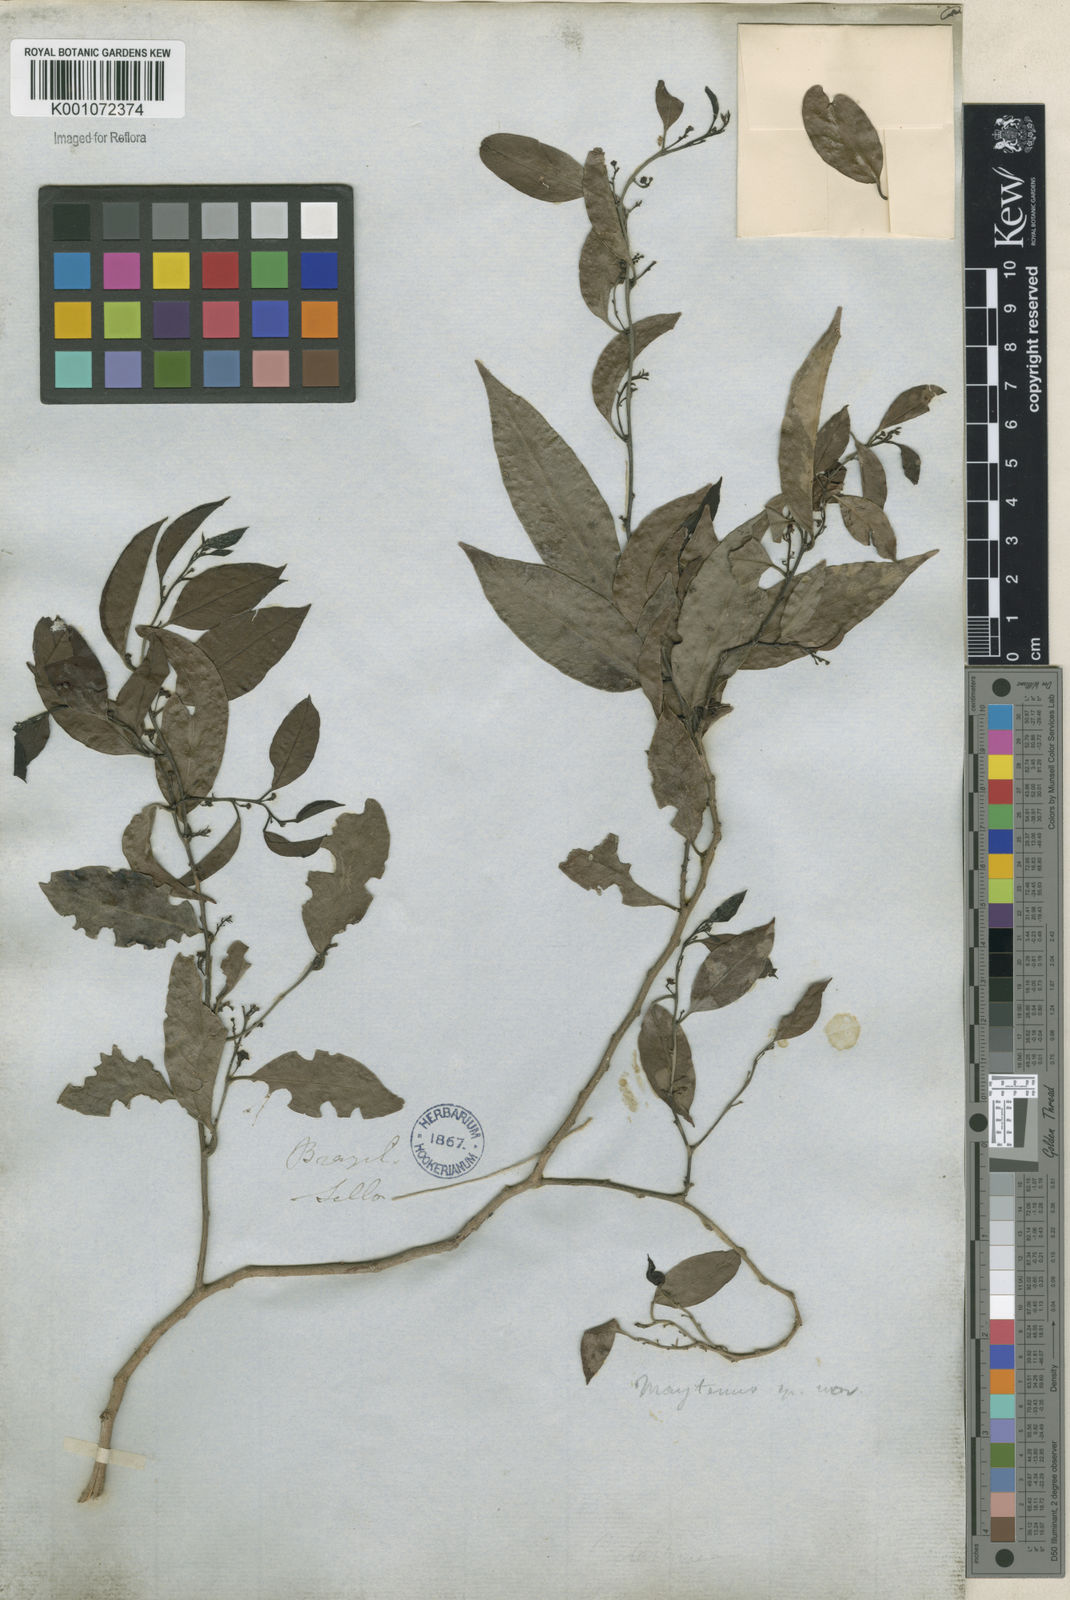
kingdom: Plantae
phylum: Tracheophyta
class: Magnoliopsida
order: Celastrales
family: Celastraceae
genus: Maytenus
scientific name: Maytenus
